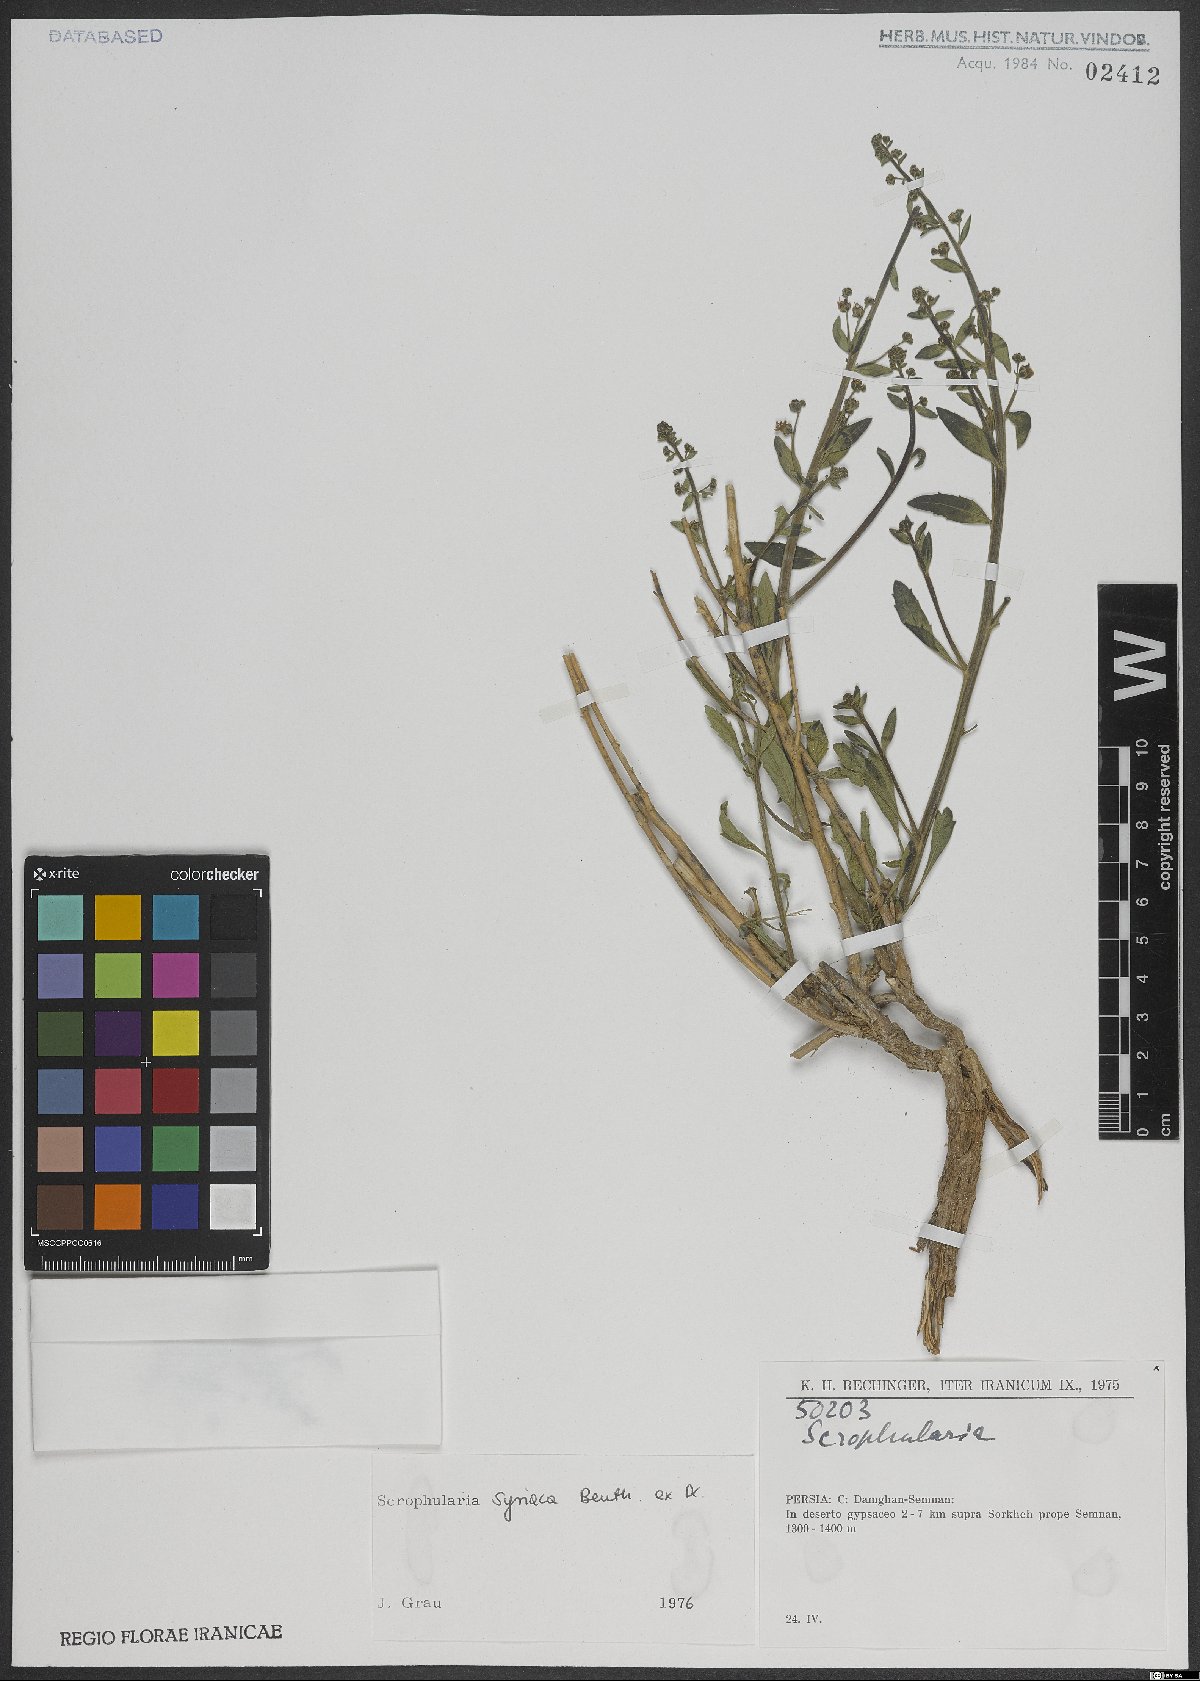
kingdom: Plantae
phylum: Tracheophyta
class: Magnoliopsida
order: Lamiales
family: Scrophulariaceae
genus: Scrophularia
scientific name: Scrophularia hypericifolia
